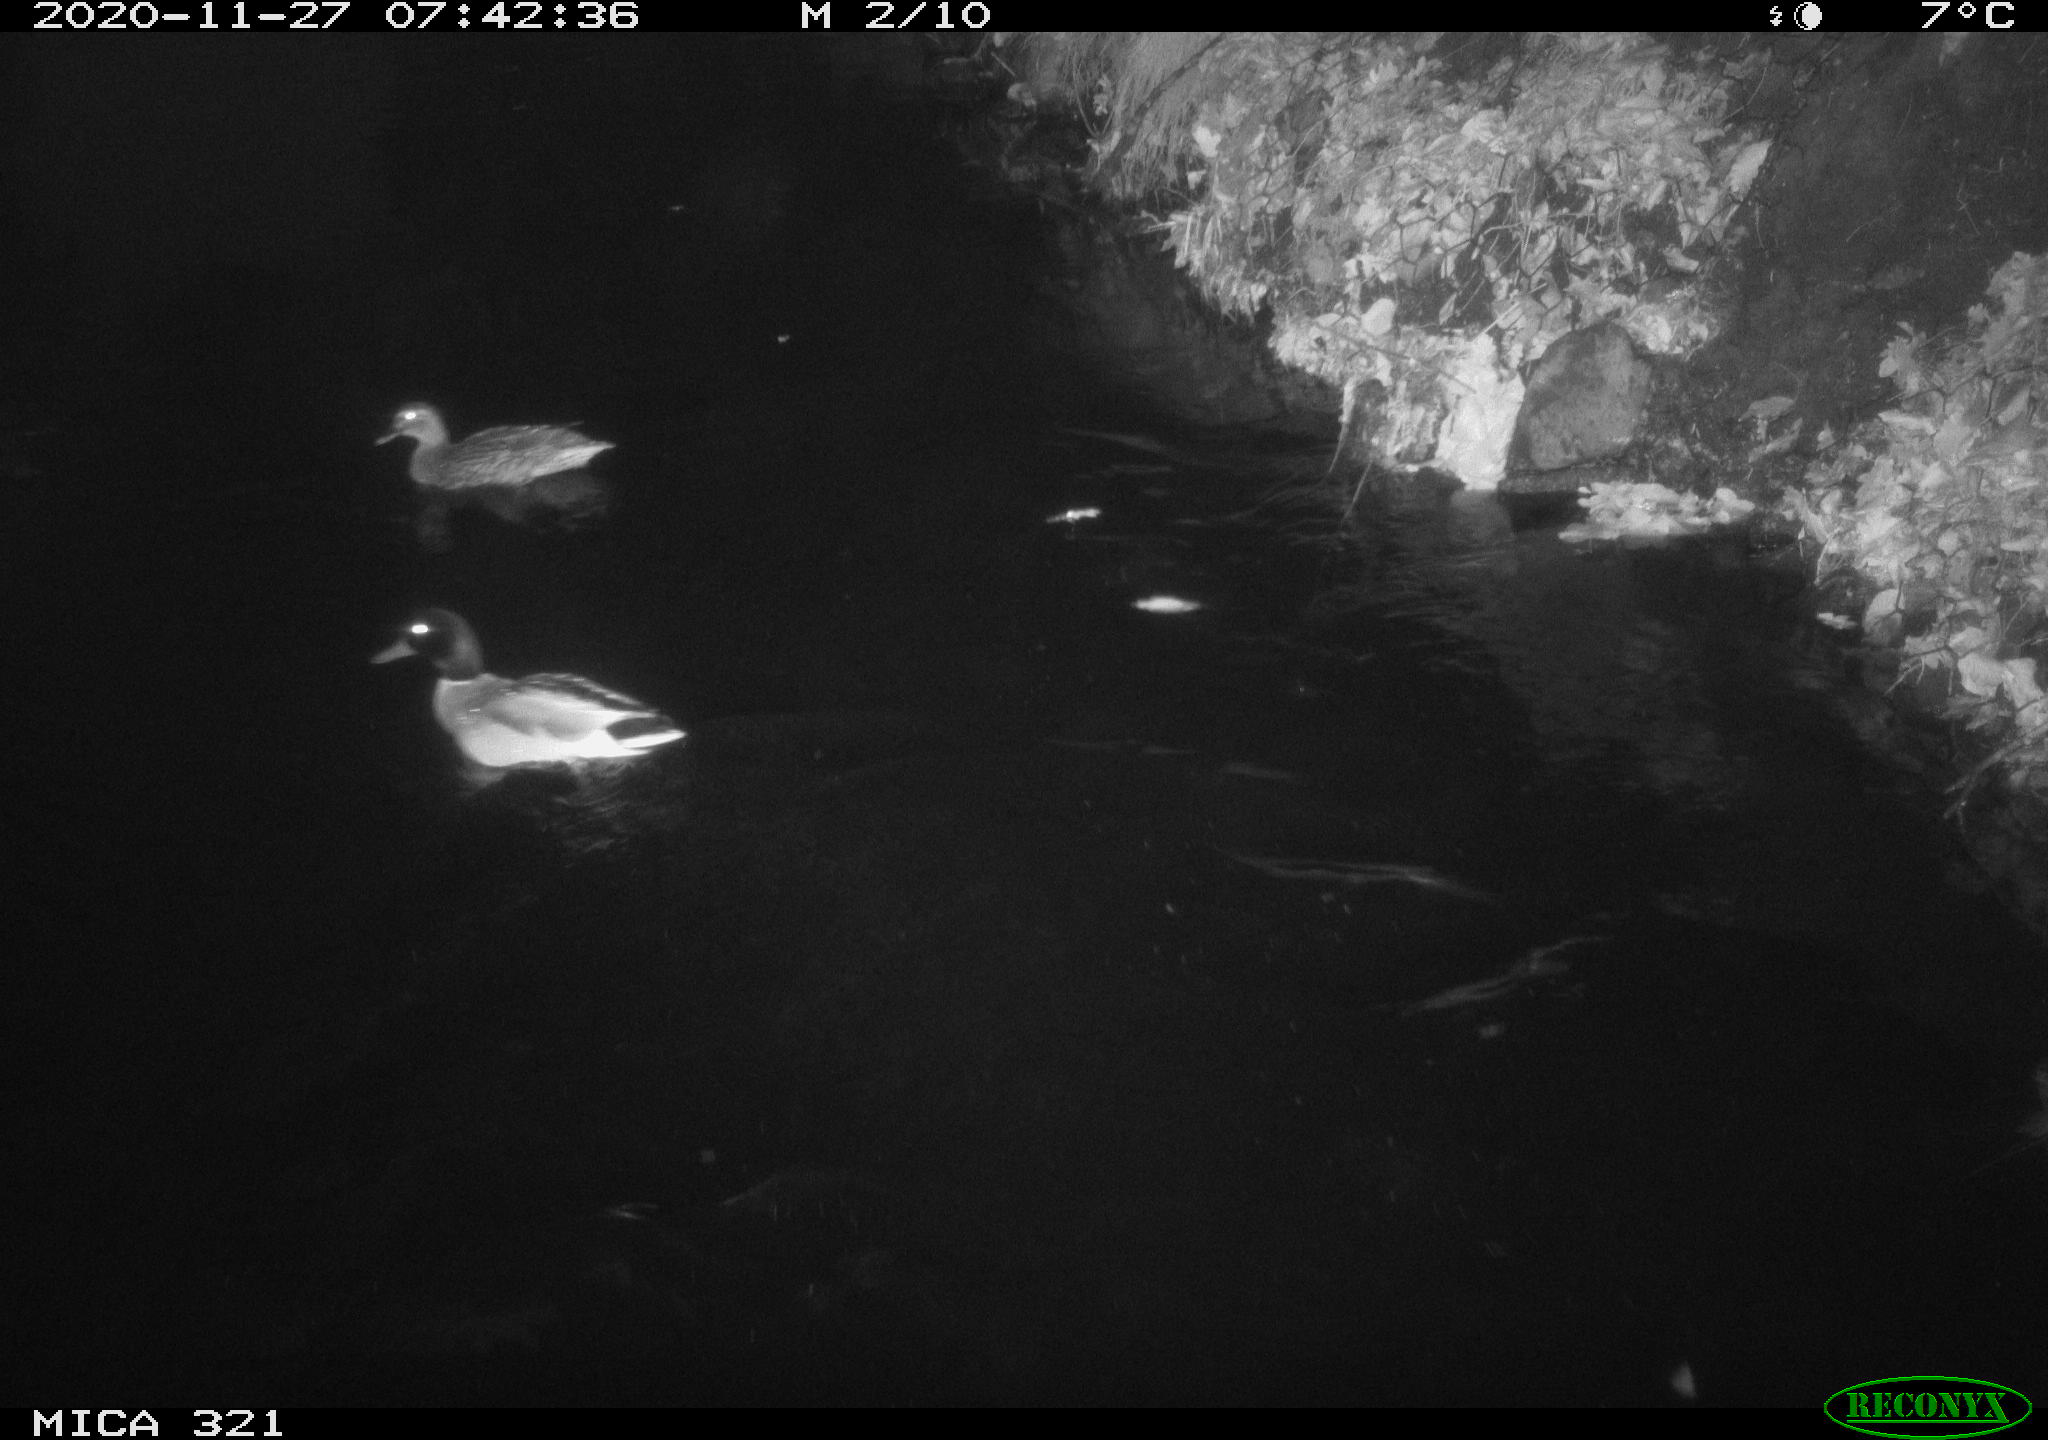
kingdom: Animalia
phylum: Chordata
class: Aves
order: Anseriformes
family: Anatidae
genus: Anas
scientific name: Anas platyrhynchos
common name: Mallard
